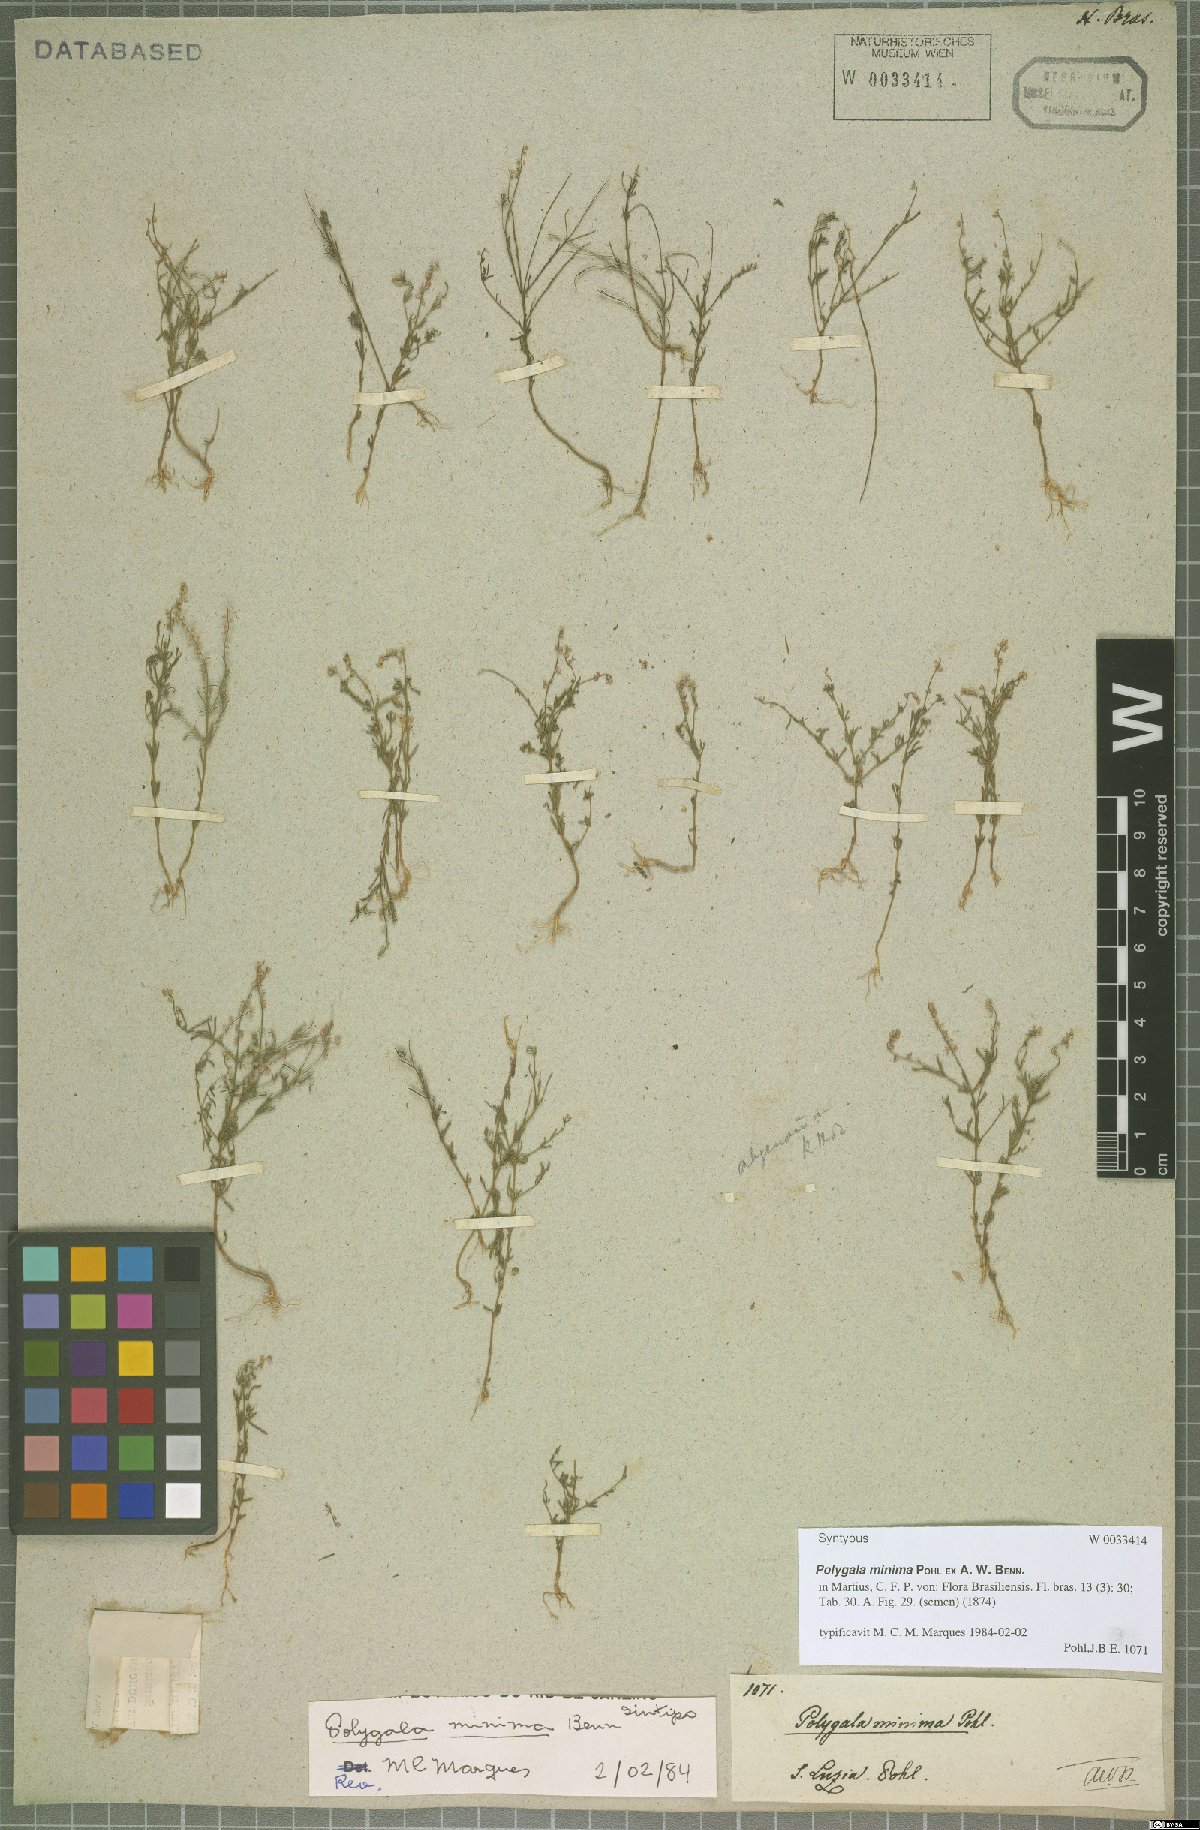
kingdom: Plantae
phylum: Tracheophyta
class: Magnoliopsida
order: Fabales
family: Polygalaceae
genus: Polygala
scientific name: Polygala glochidiata
